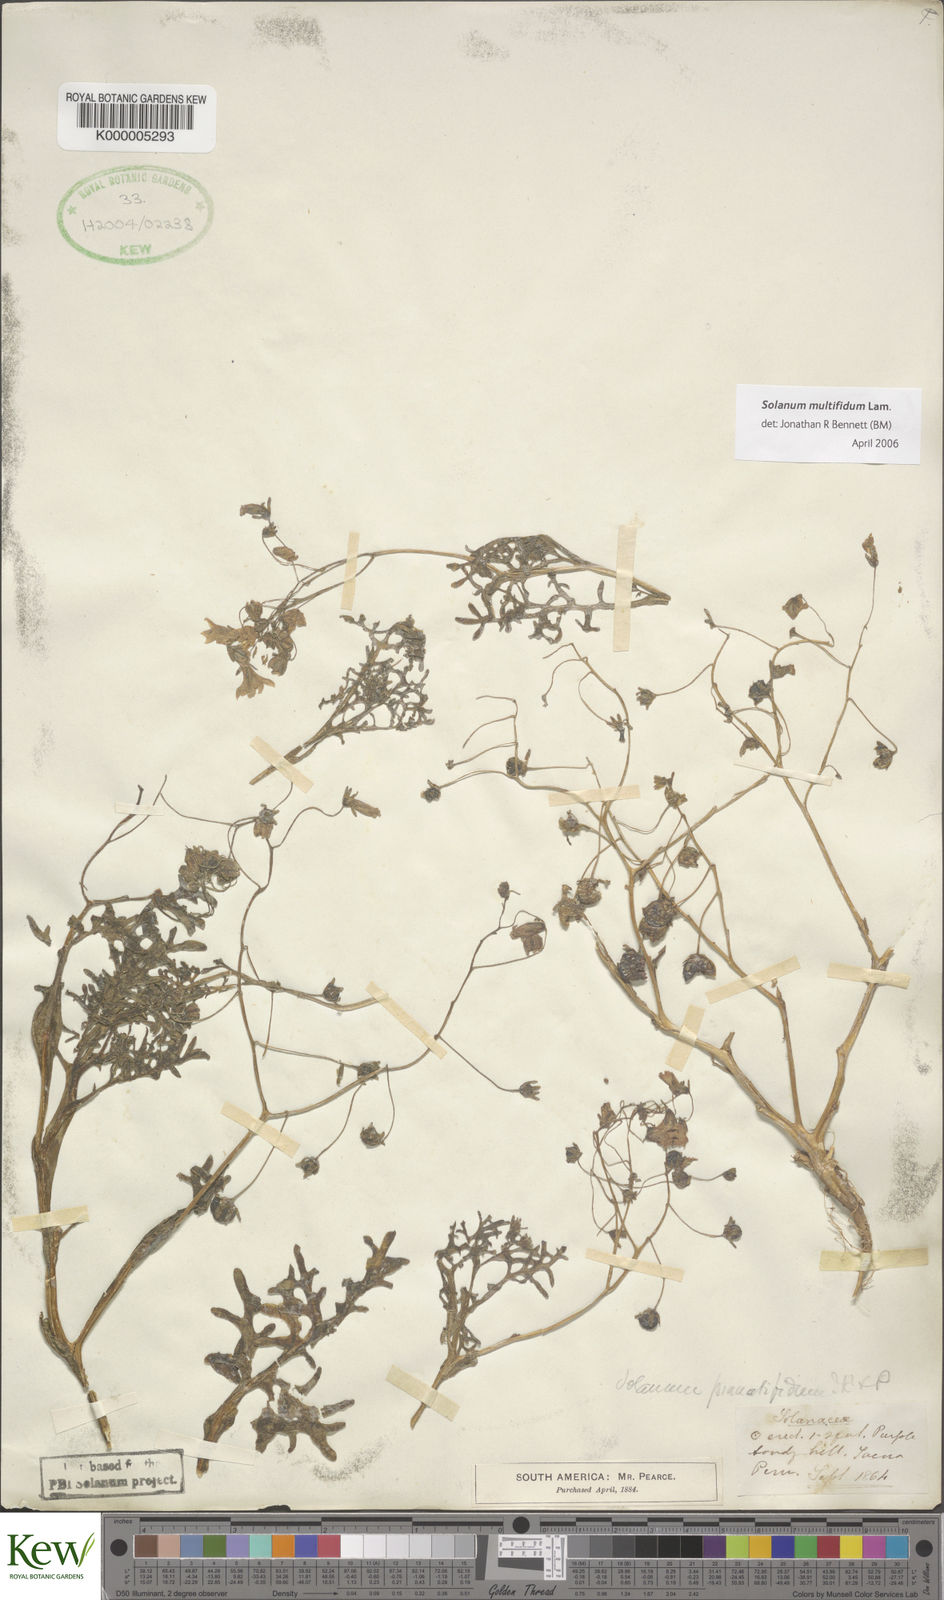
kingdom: Plantae
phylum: Tracheophyta
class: Magnoliopsida
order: Solanales
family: Solanaceae
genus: Solanum
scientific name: Solanum multifidum
